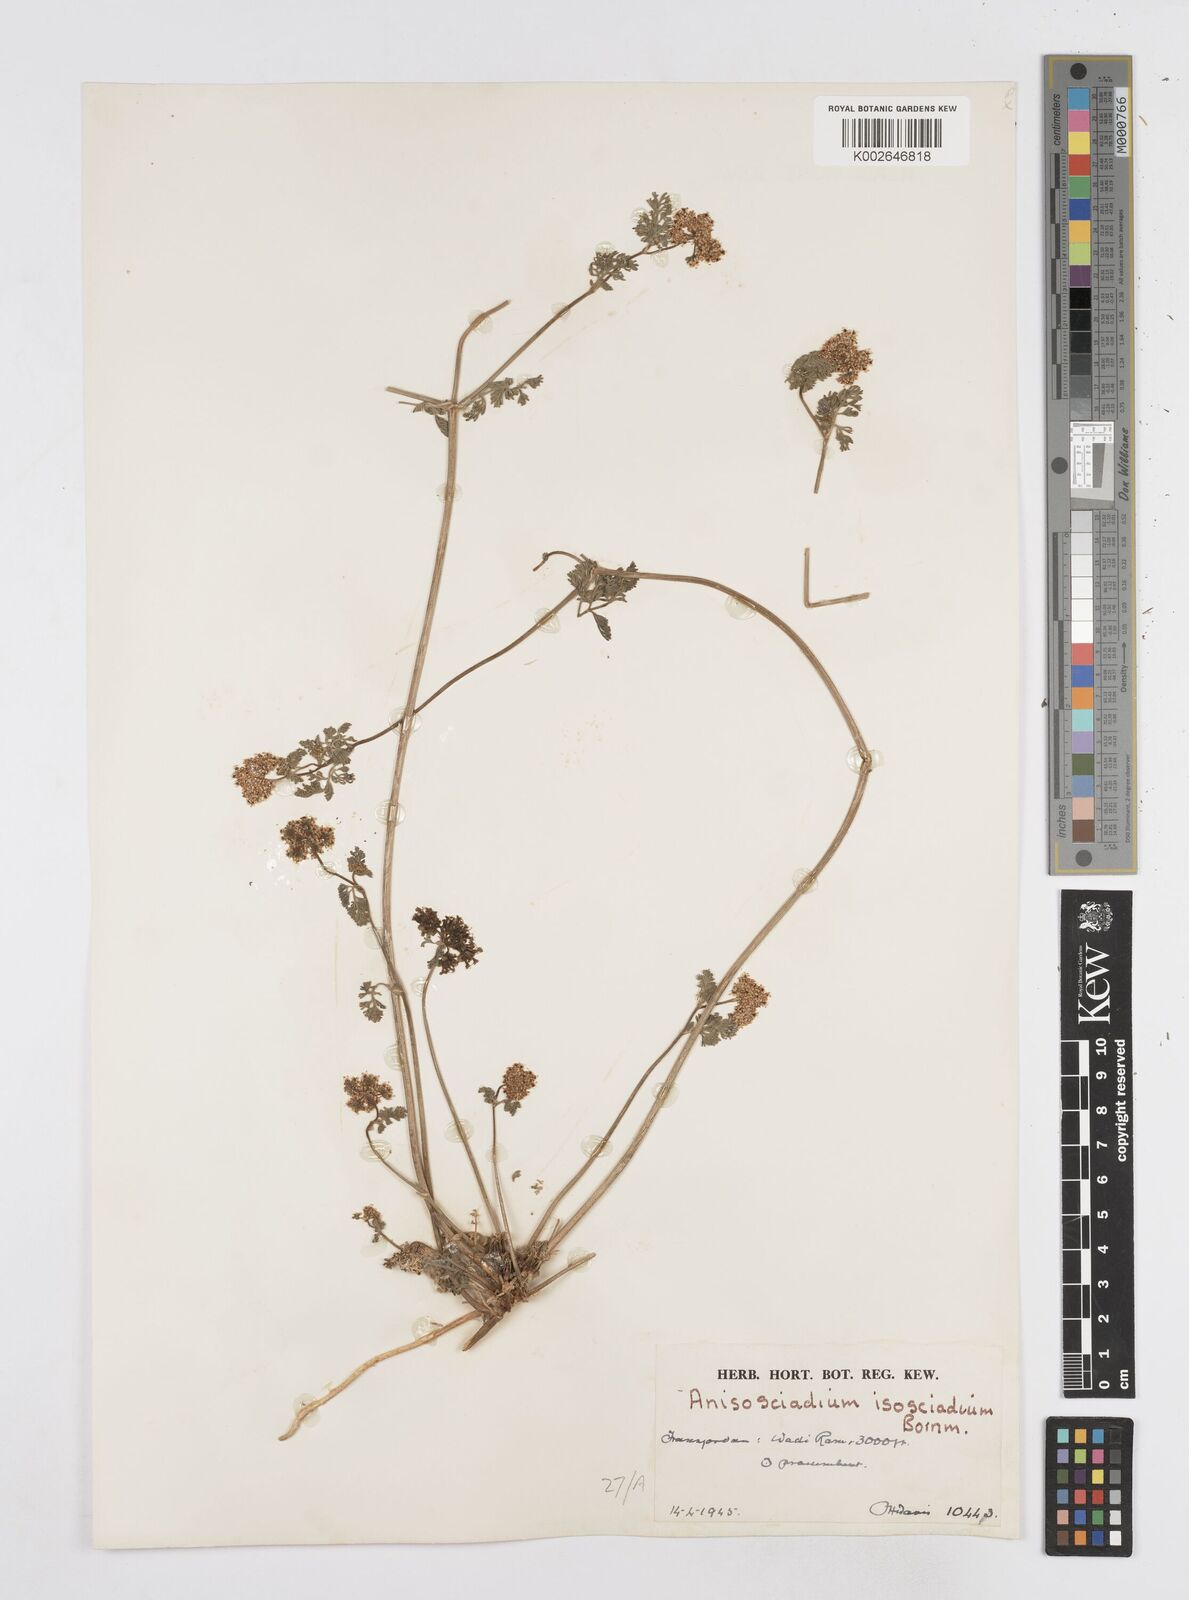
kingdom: Plantae
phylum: Tracheophyta
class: Magnoliopsida
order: Apiales
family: Apiaceae
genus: Anisosciadium
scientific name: Anisosciadium isosciadium
